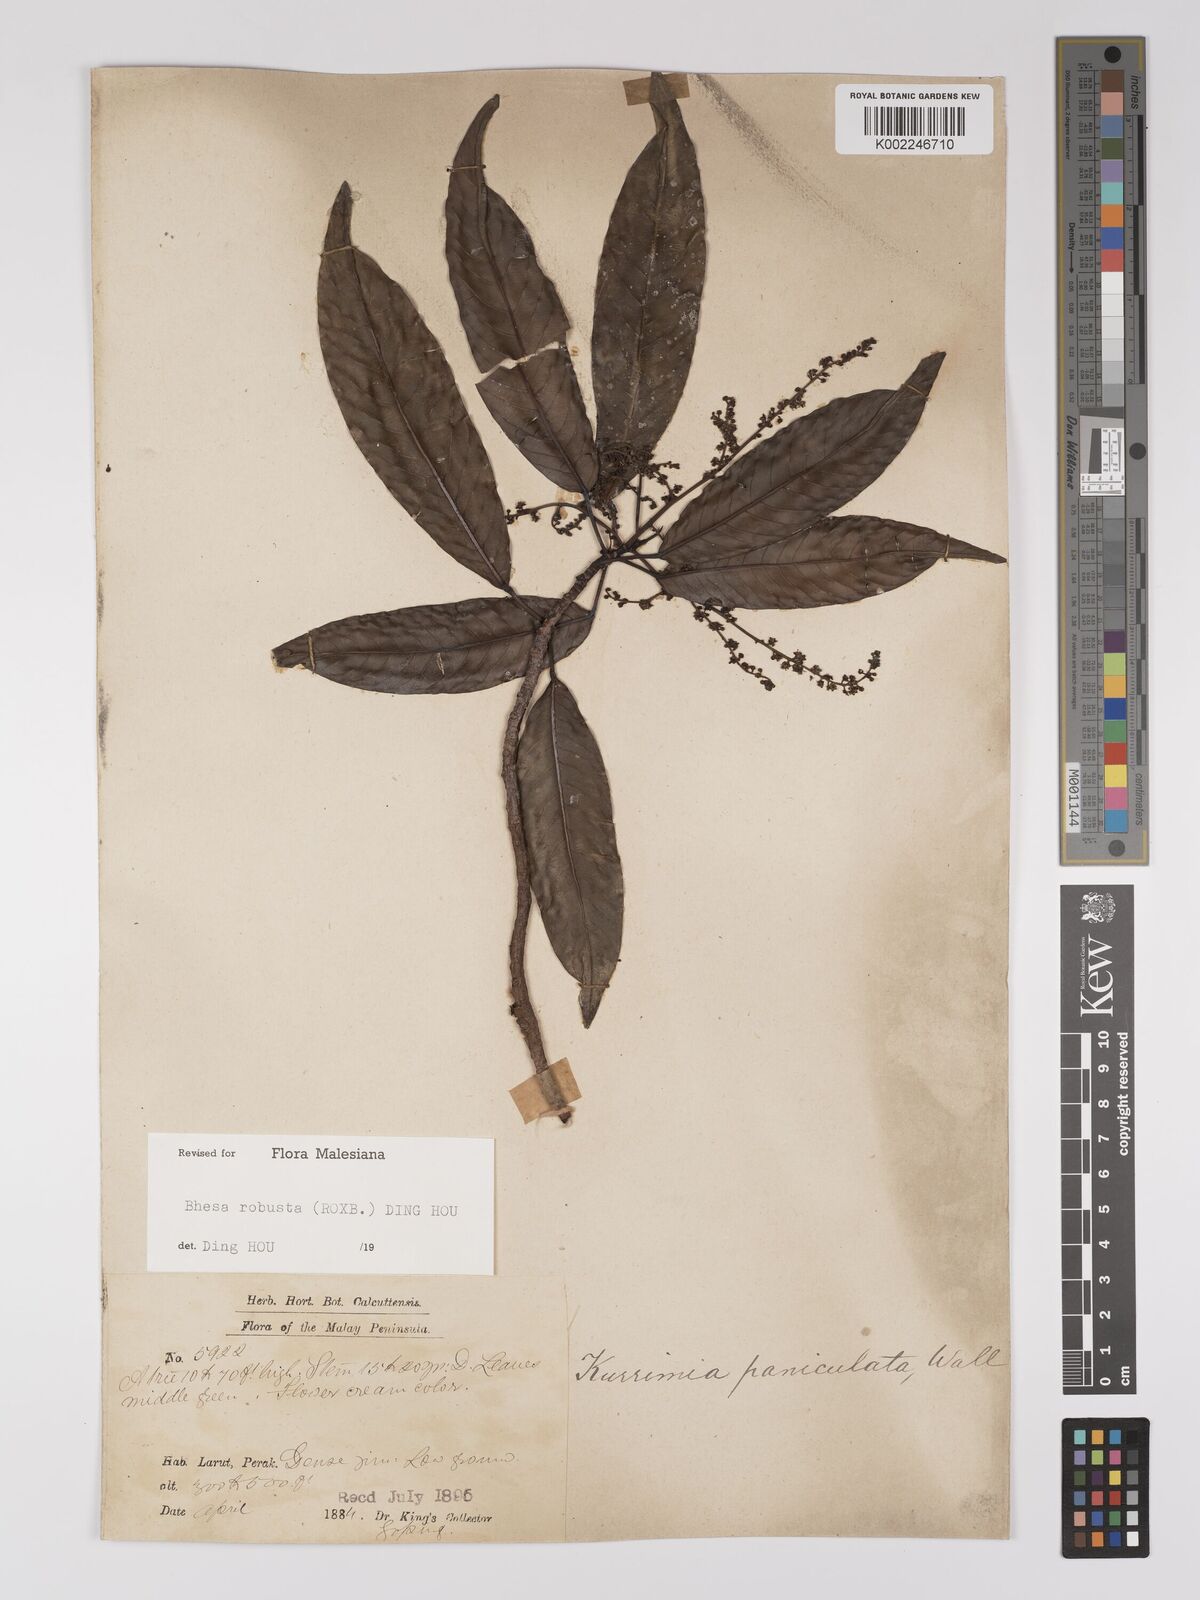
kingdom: Plantae
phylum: Tracheophyta
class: Magnoliopsida
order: Malpighiales
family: Centroplacaceae
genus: Bhesa
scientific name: Bhesa robusta
